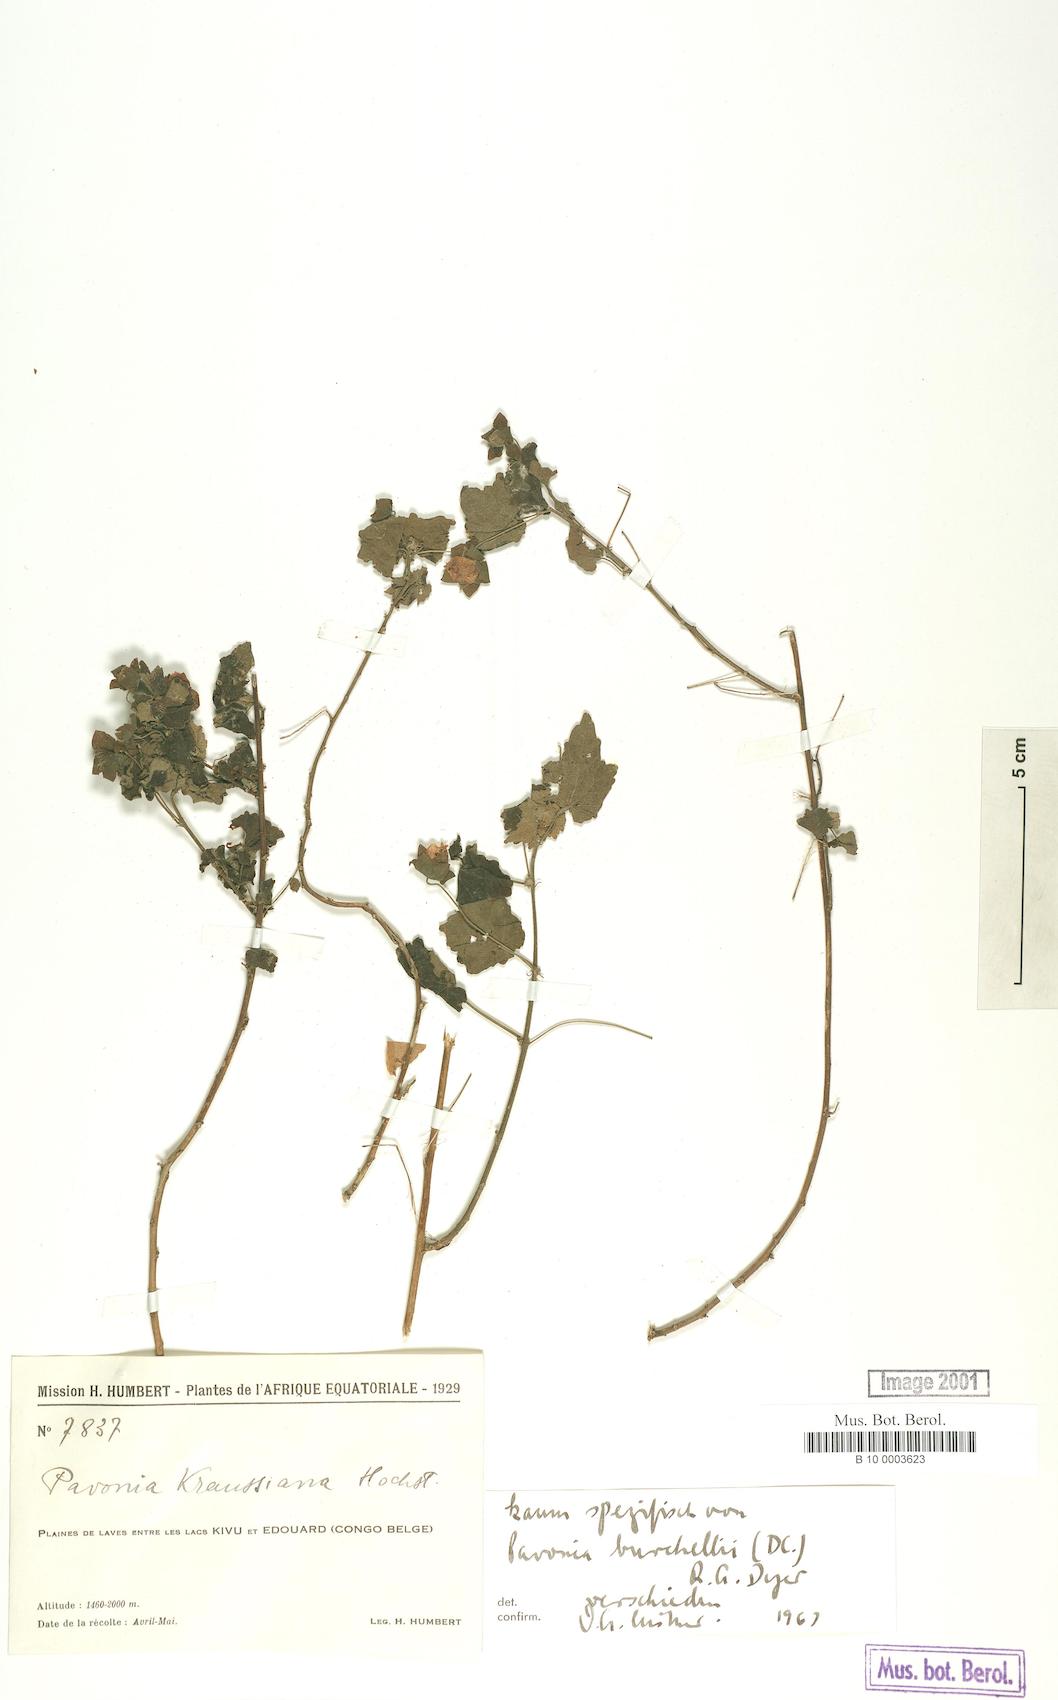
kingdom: Plantae
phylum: Tracheophyta
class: Magnoliopsida
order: Malvales
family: Malvaceae
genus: Pavonia
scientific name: Pavonia burchellii
